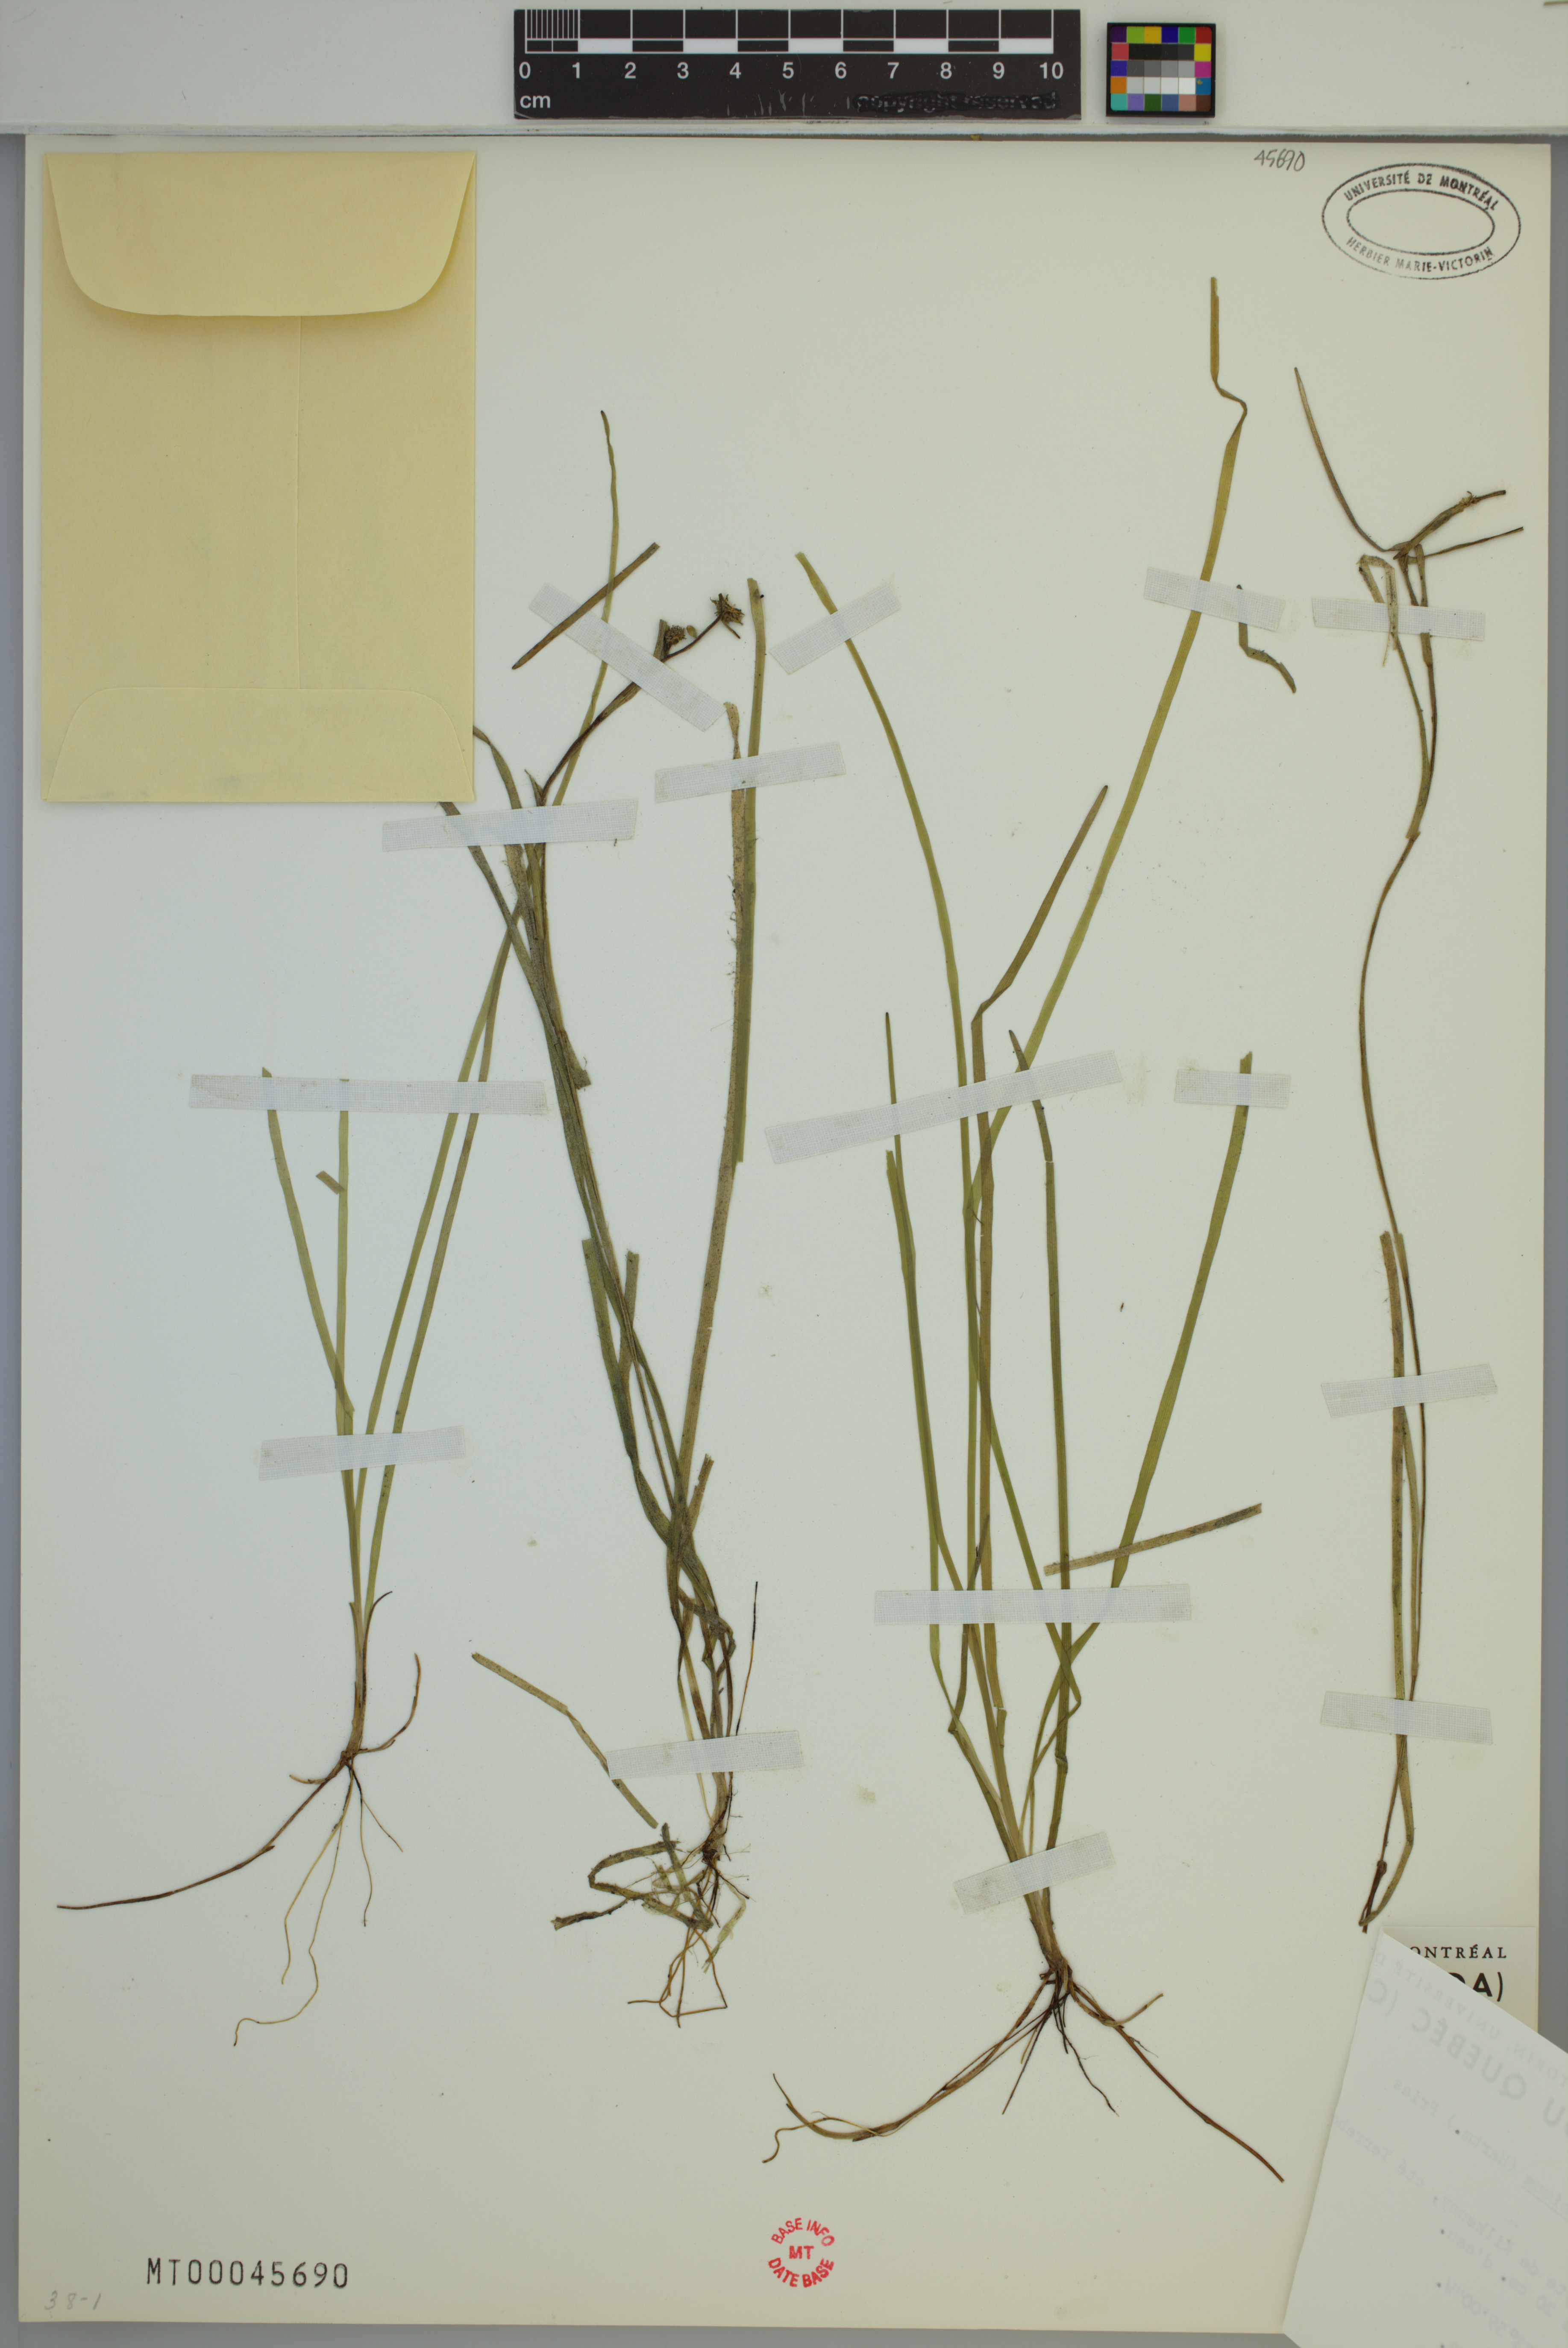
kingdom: Plantae
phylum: Tracheophyta
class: Liliopsida
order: Poales
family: Typhaceae
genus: Sparganium
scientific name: Sparganium natans
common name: Least bur-reed
